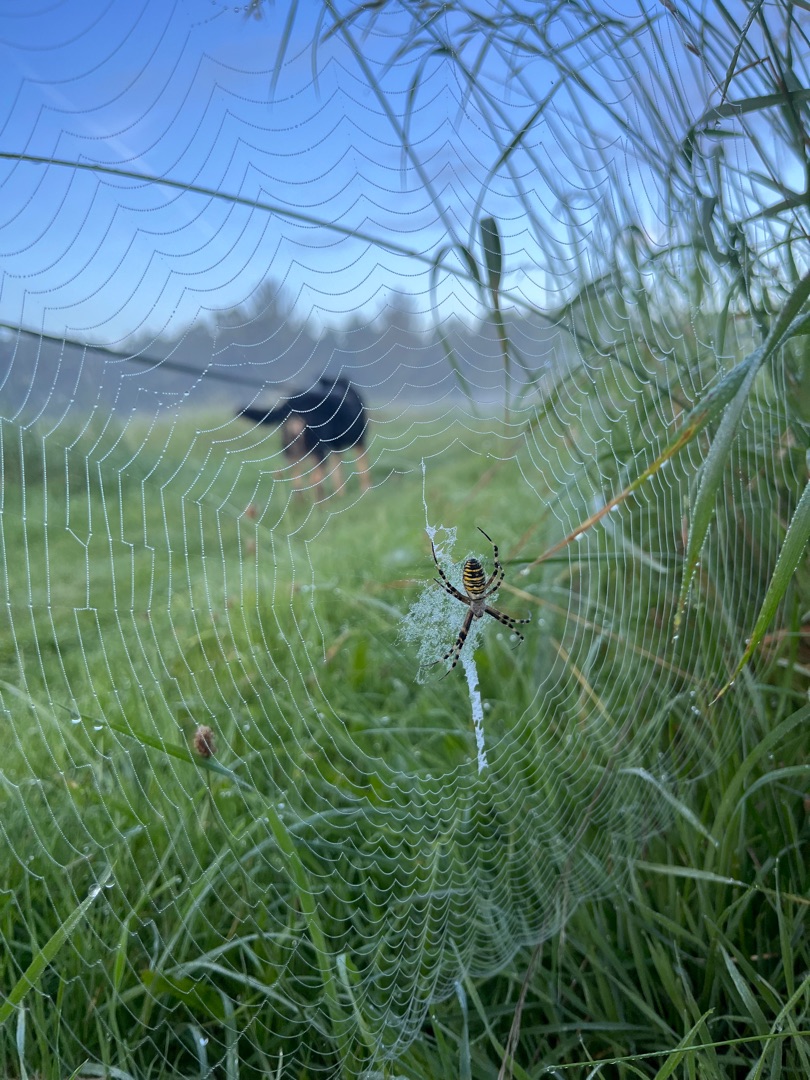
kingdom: Animalia
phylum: Arthropoda
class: Arachnida
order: Araneae
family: Araneidae
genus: Argiope
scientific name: Argiope bruennichi
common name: Hvepseedderkop
